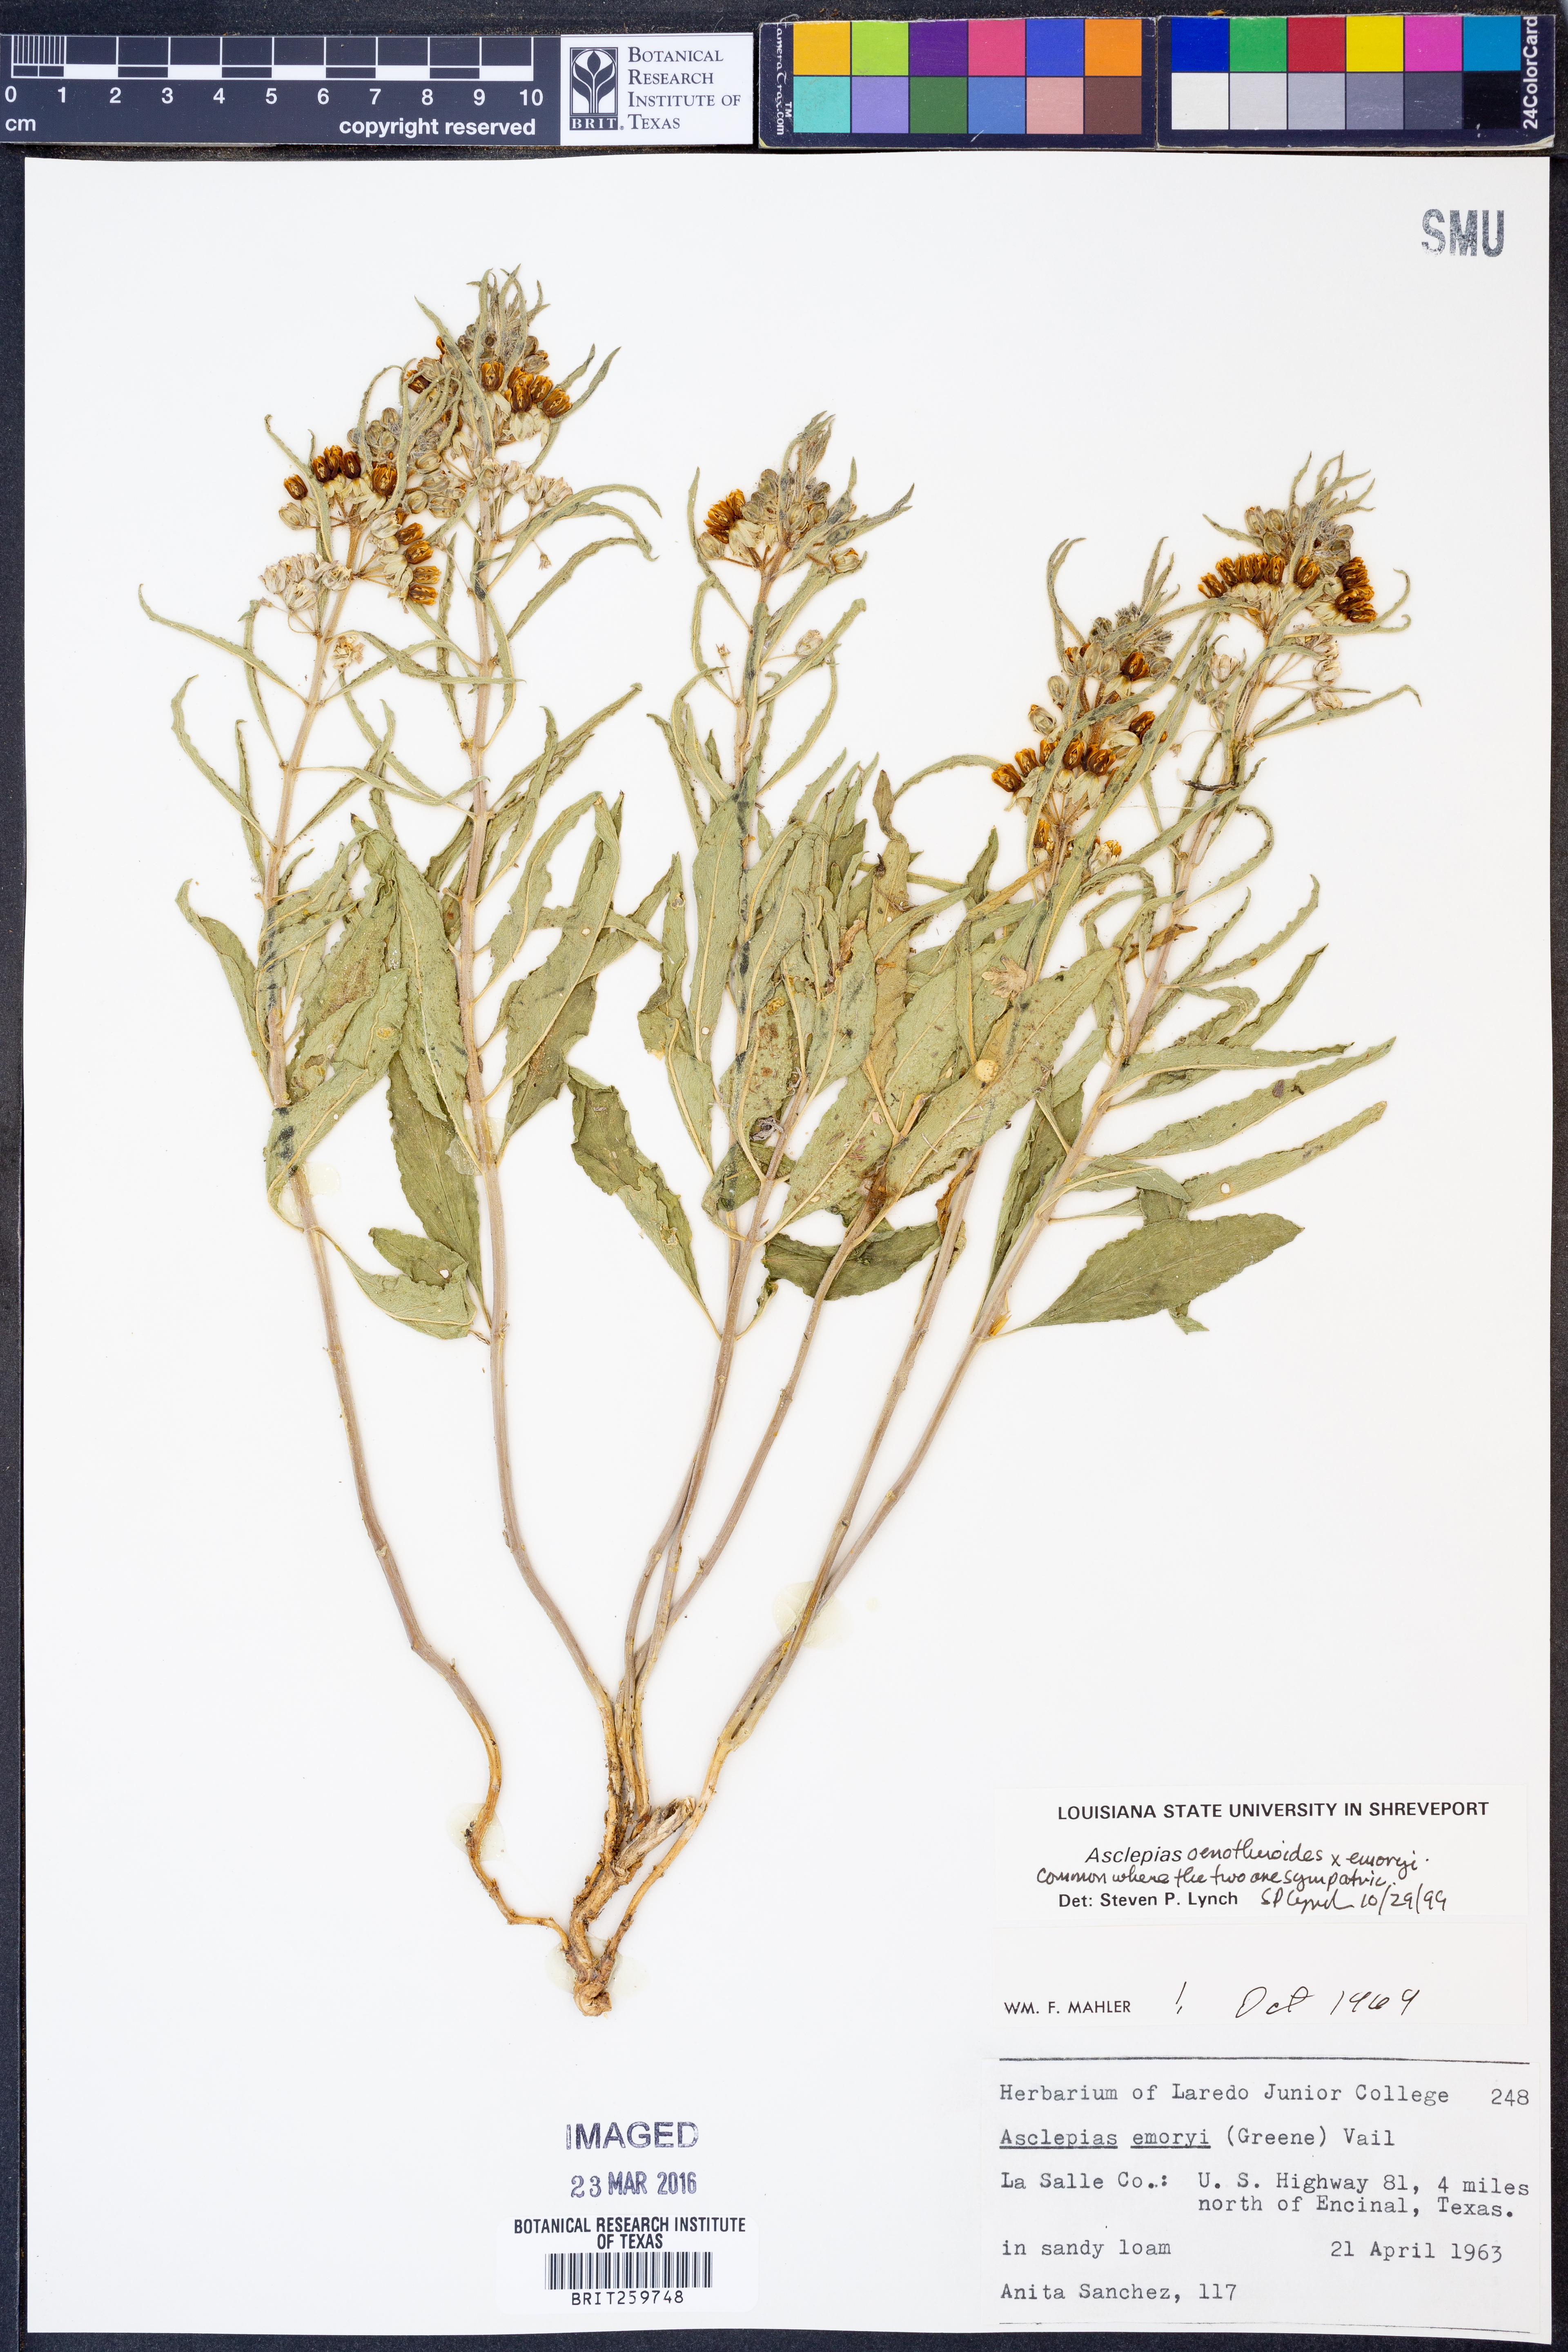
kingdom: Plantae
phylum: Tracheophyta
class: Magnoliopsida
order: Gentianales
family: Apocynaceae
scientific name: Apocynaceae
